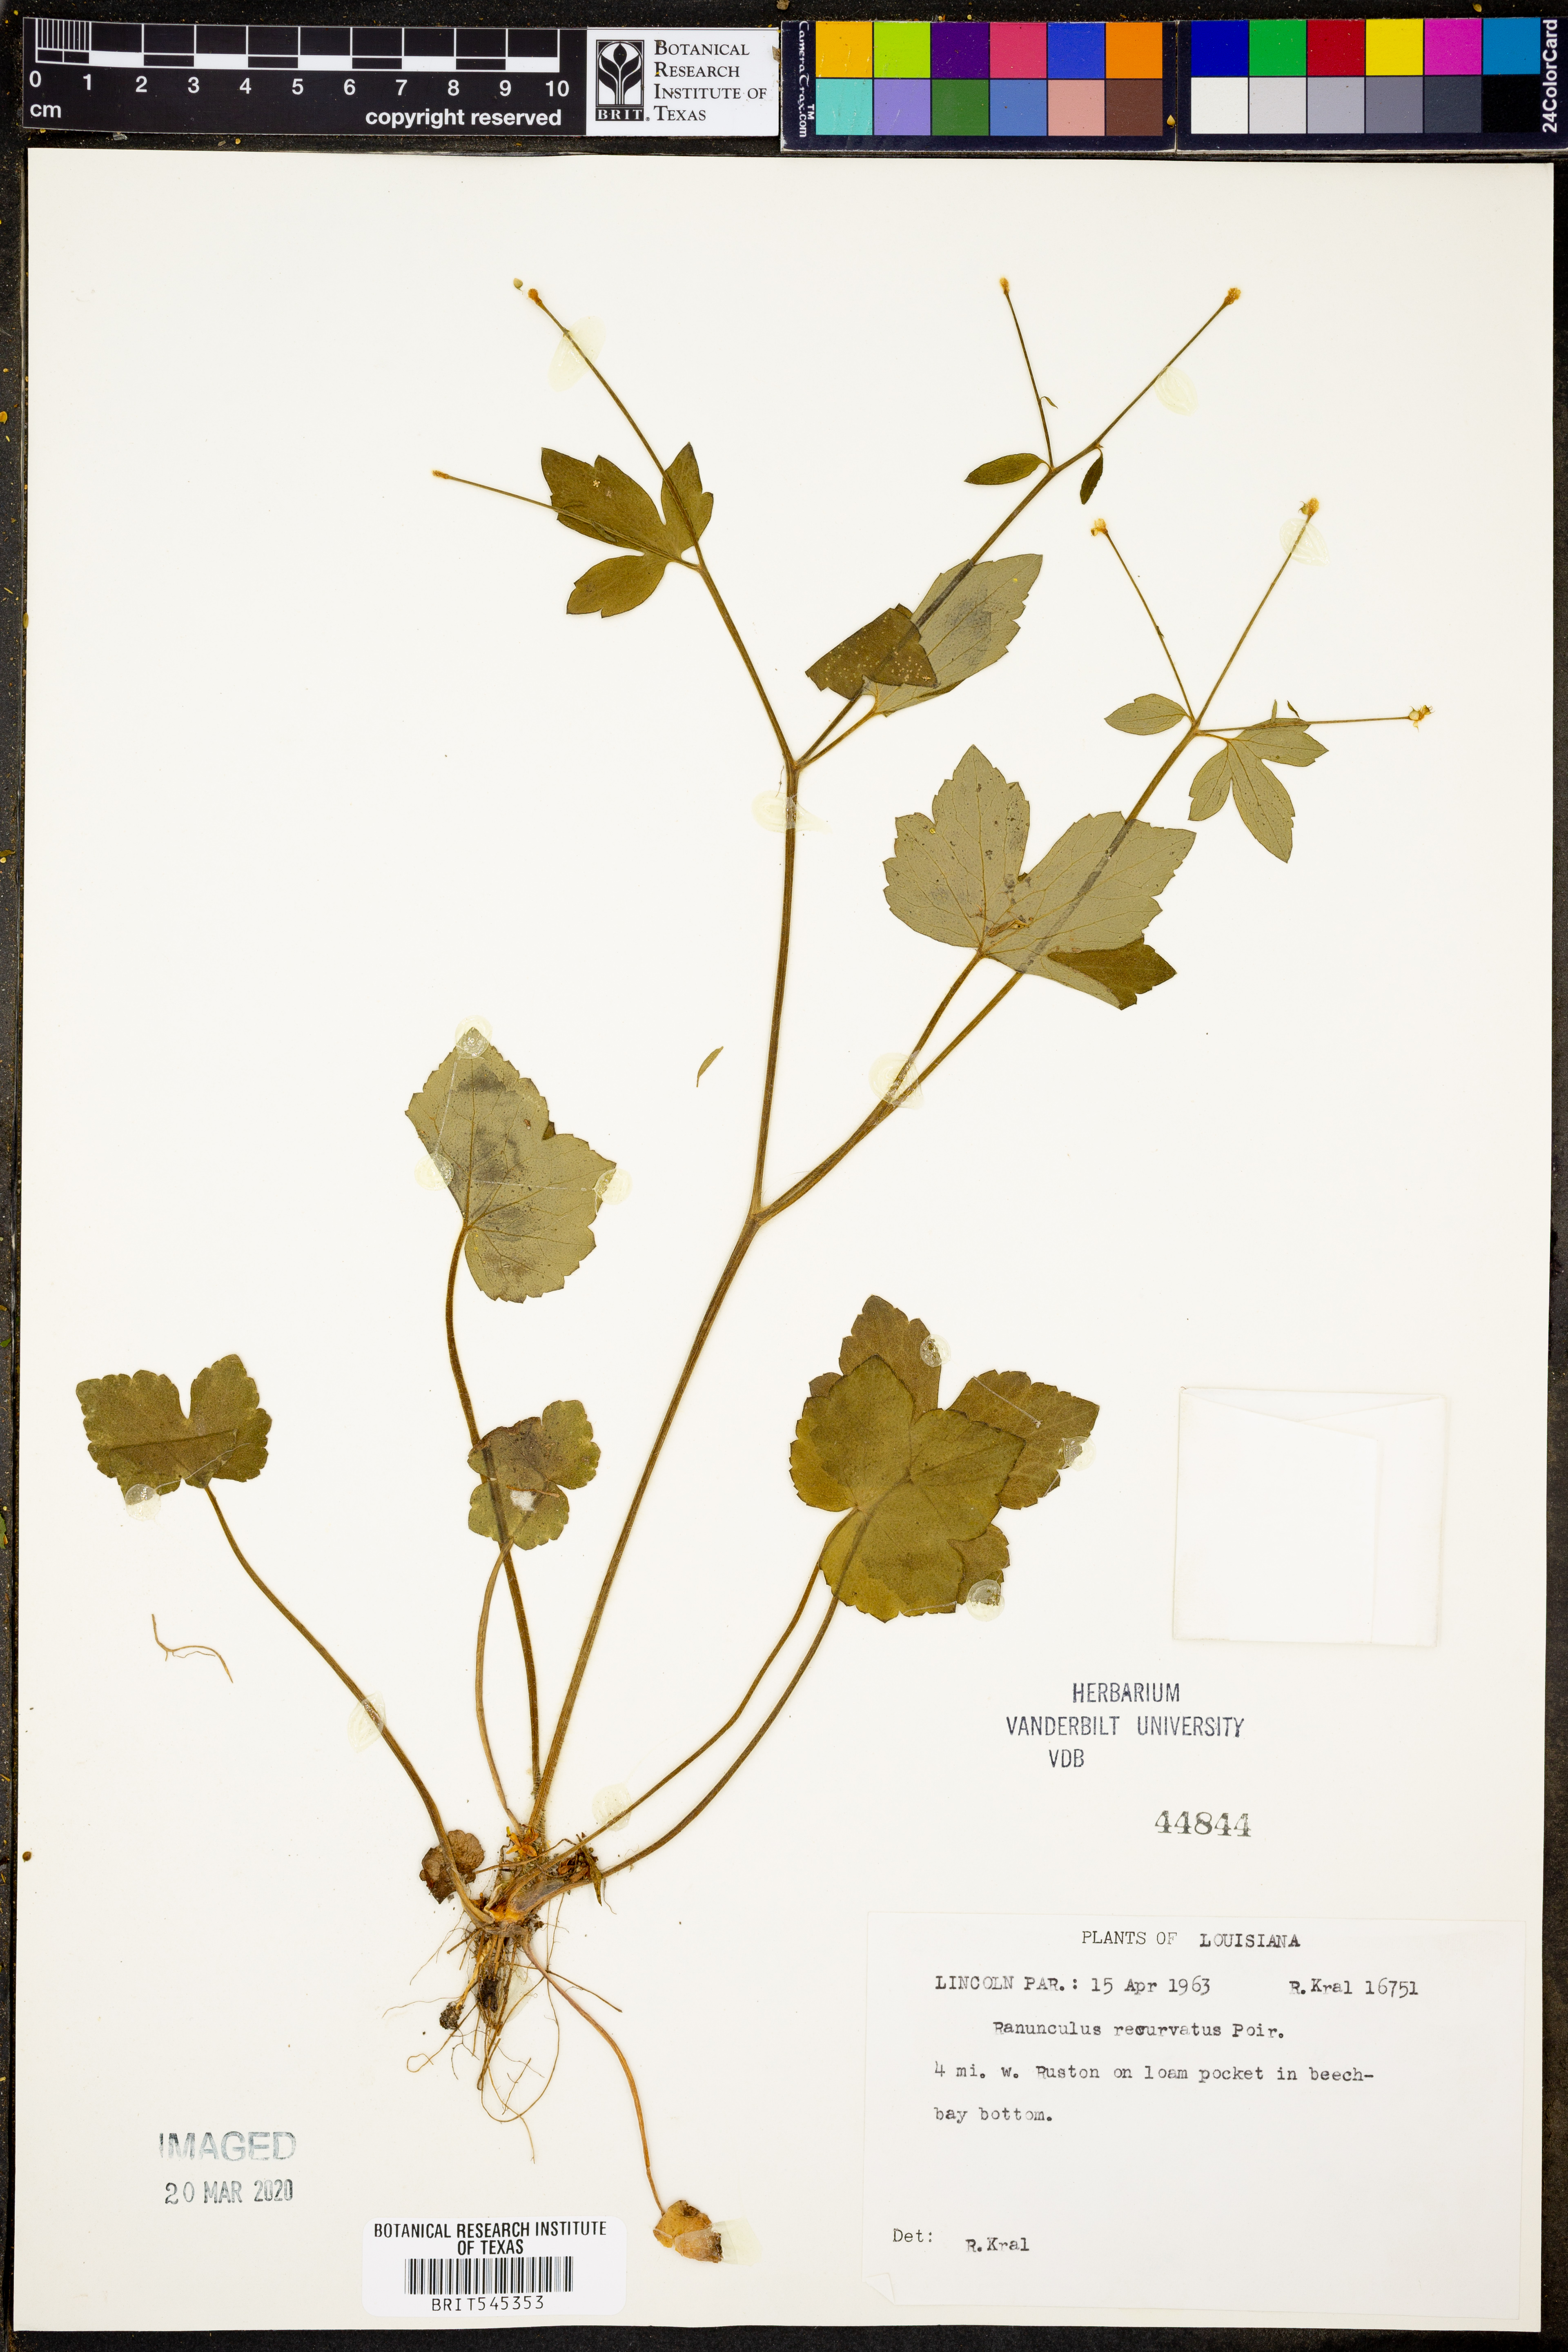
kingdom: Plantae
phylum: Tracheophyta
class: Magnoliopsida
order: Ranunculales
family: Ranunculaceae
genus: Ranunculus
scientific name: Ranunculus recurvatus
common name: Blisterwort
